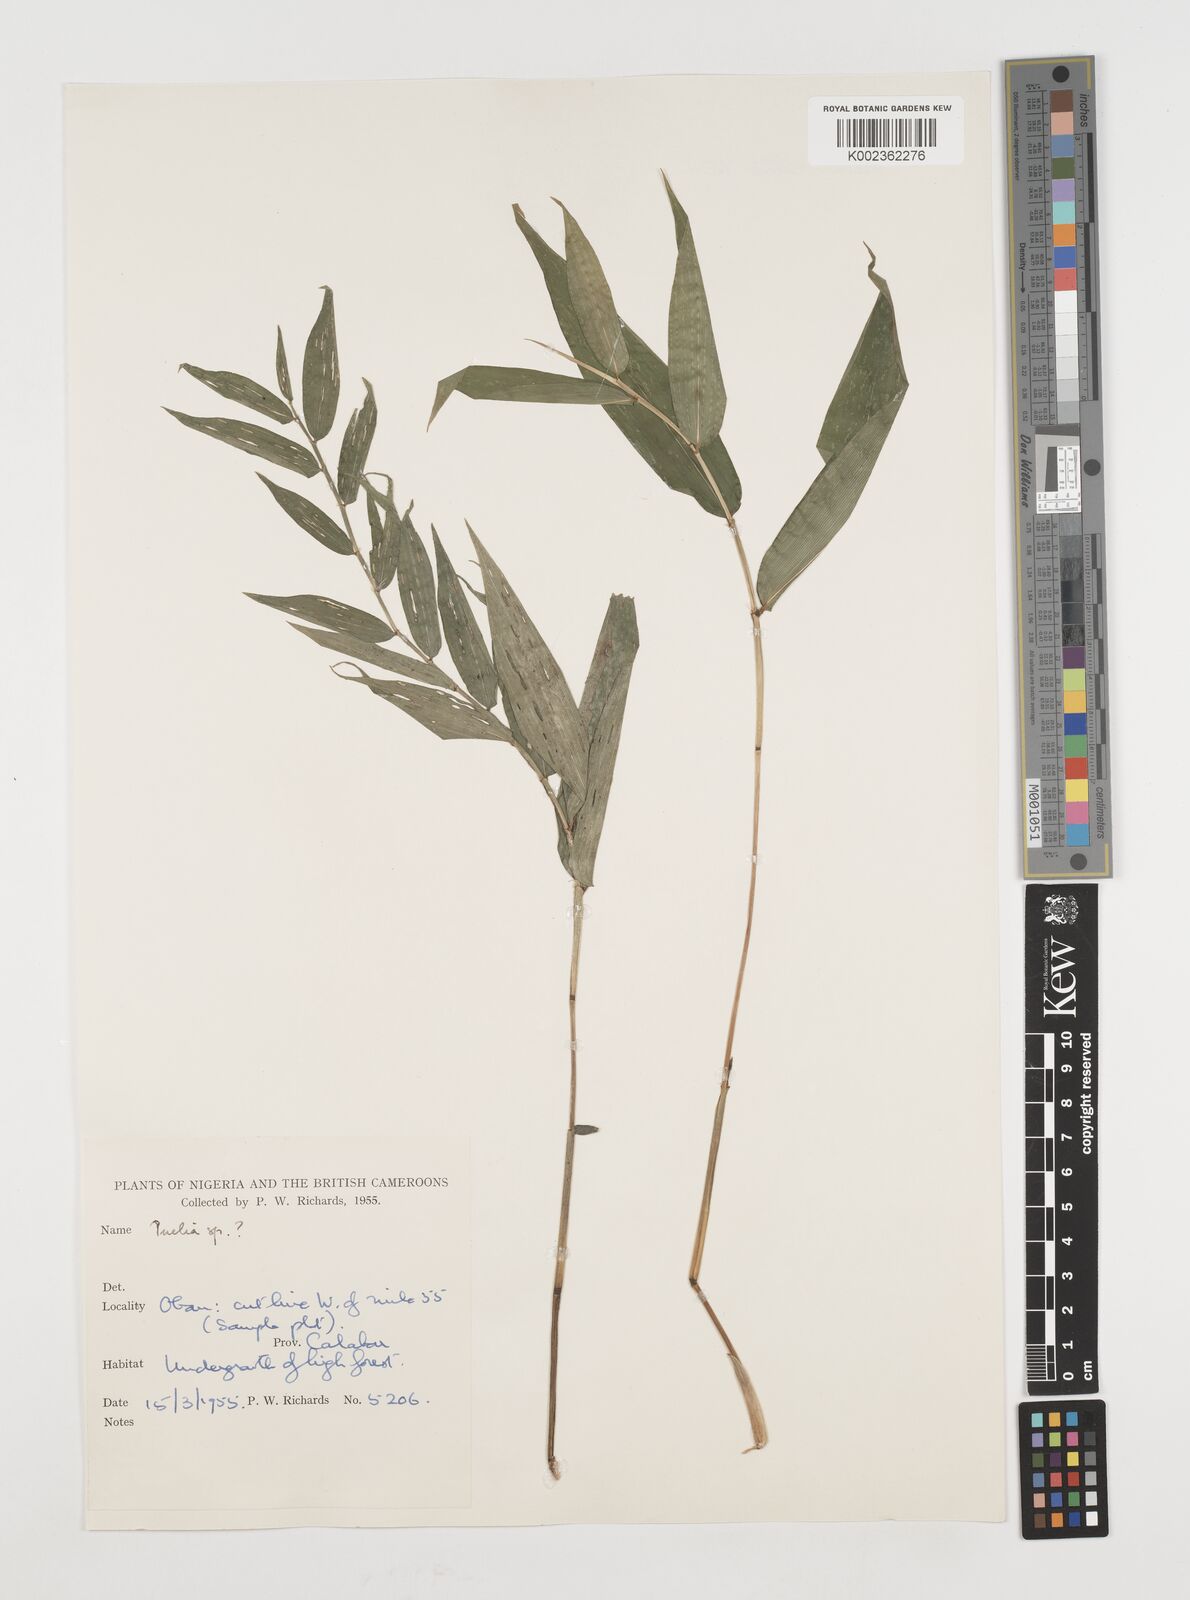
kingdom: Plantae
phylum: Tracheophyta
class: Liliopsida
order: Poales
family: Poaceae
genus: Guaduella
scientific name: Guaduella
